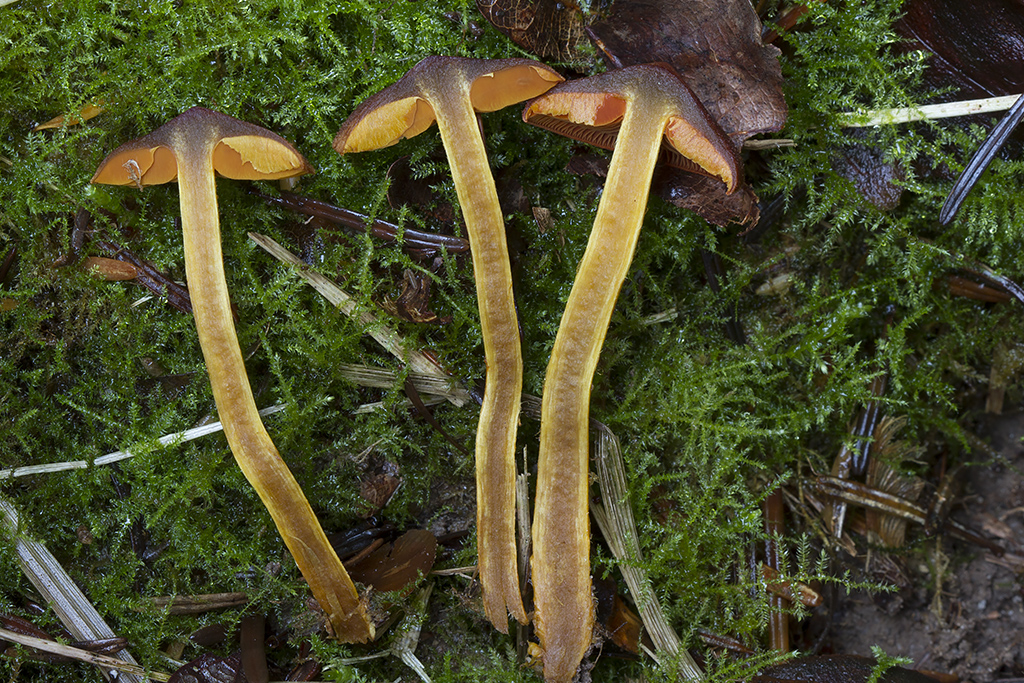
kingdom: Fungi
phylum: Basidiomycota
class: Agaricomycetes
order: Agaricales
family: Cortinariaceae
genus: Cortinarius
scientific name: Cortinarius
